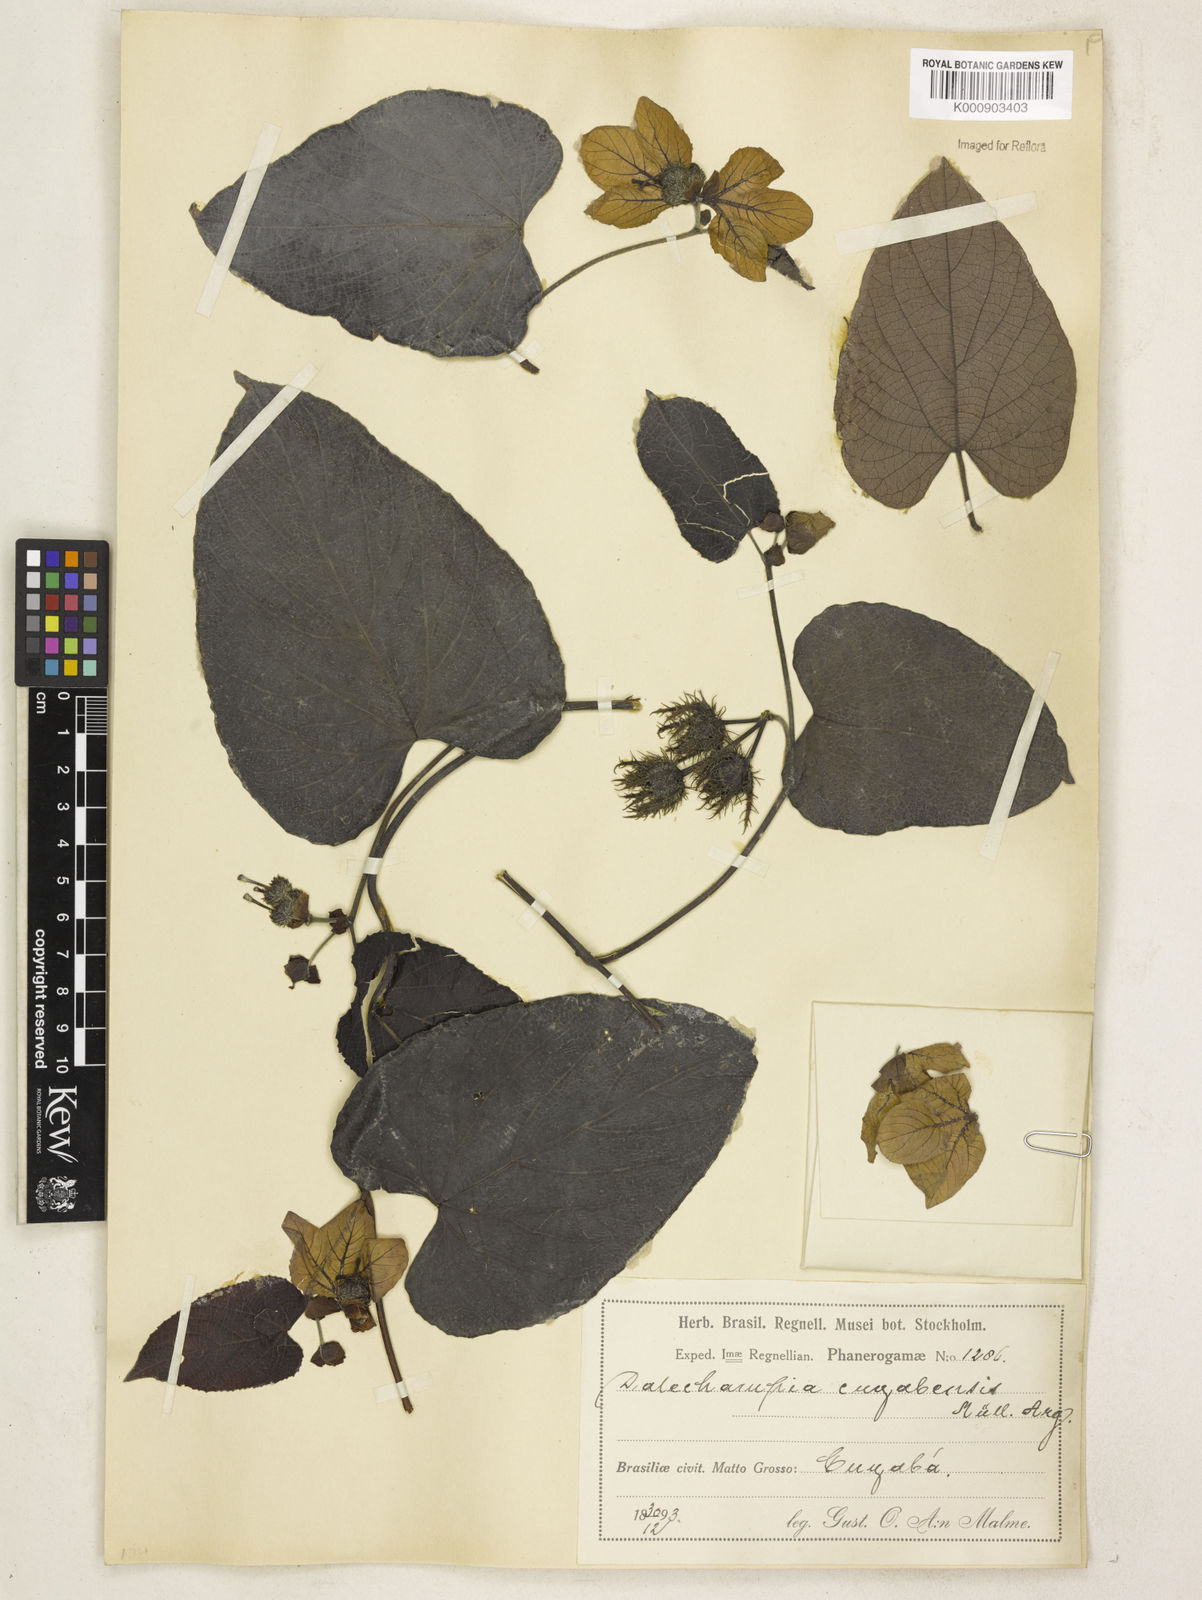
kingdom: Plantae
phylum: Tracheophyta
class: Magnoliopsida
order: Malpighiales
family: Euphorbiaceae
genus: Dalechampia
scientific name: Dalechampia
